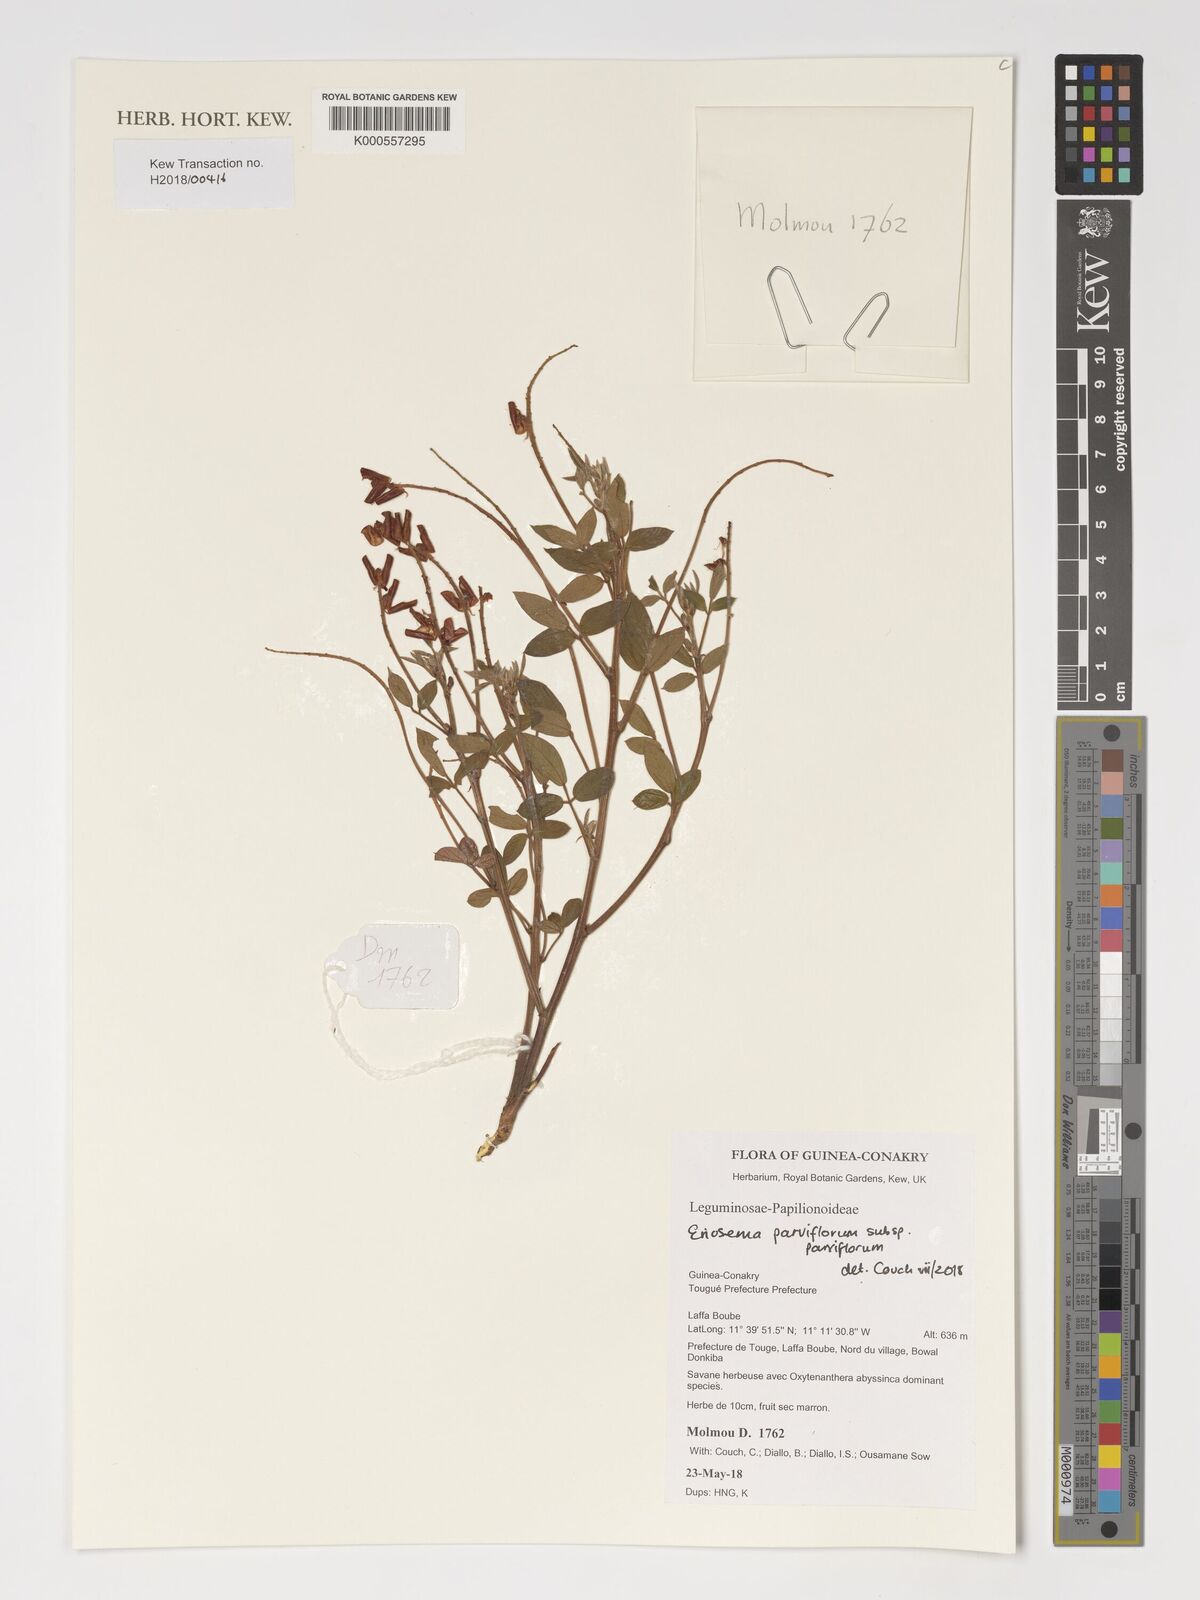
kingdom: Plantae
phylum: Tracheophyta
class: Magnoliopsida
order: Fabales
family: Fabaceae
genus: Eriosema
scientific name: Eriosema parviflorum
